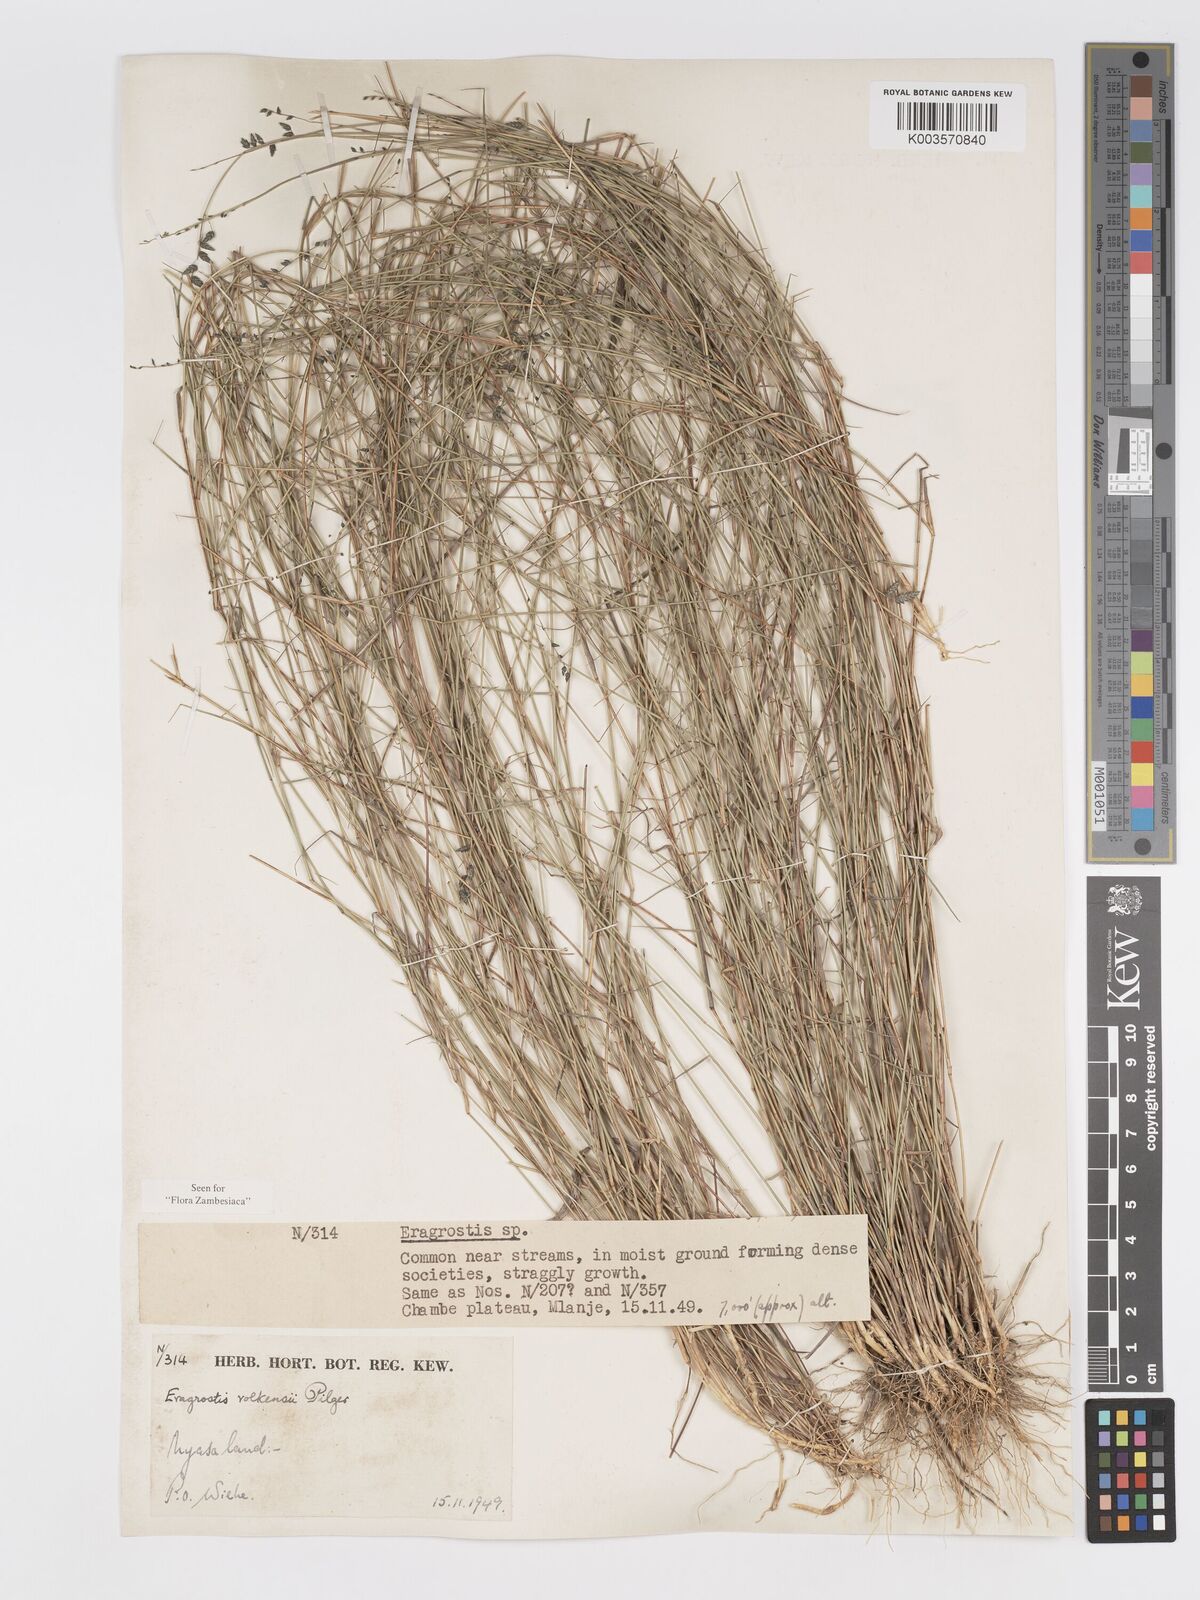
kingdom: Plantae
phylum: Tracheophyta
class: Liliopsida
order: Poales
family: Poaceae
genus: Eragrostis
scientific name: Eragrostis volkensii
